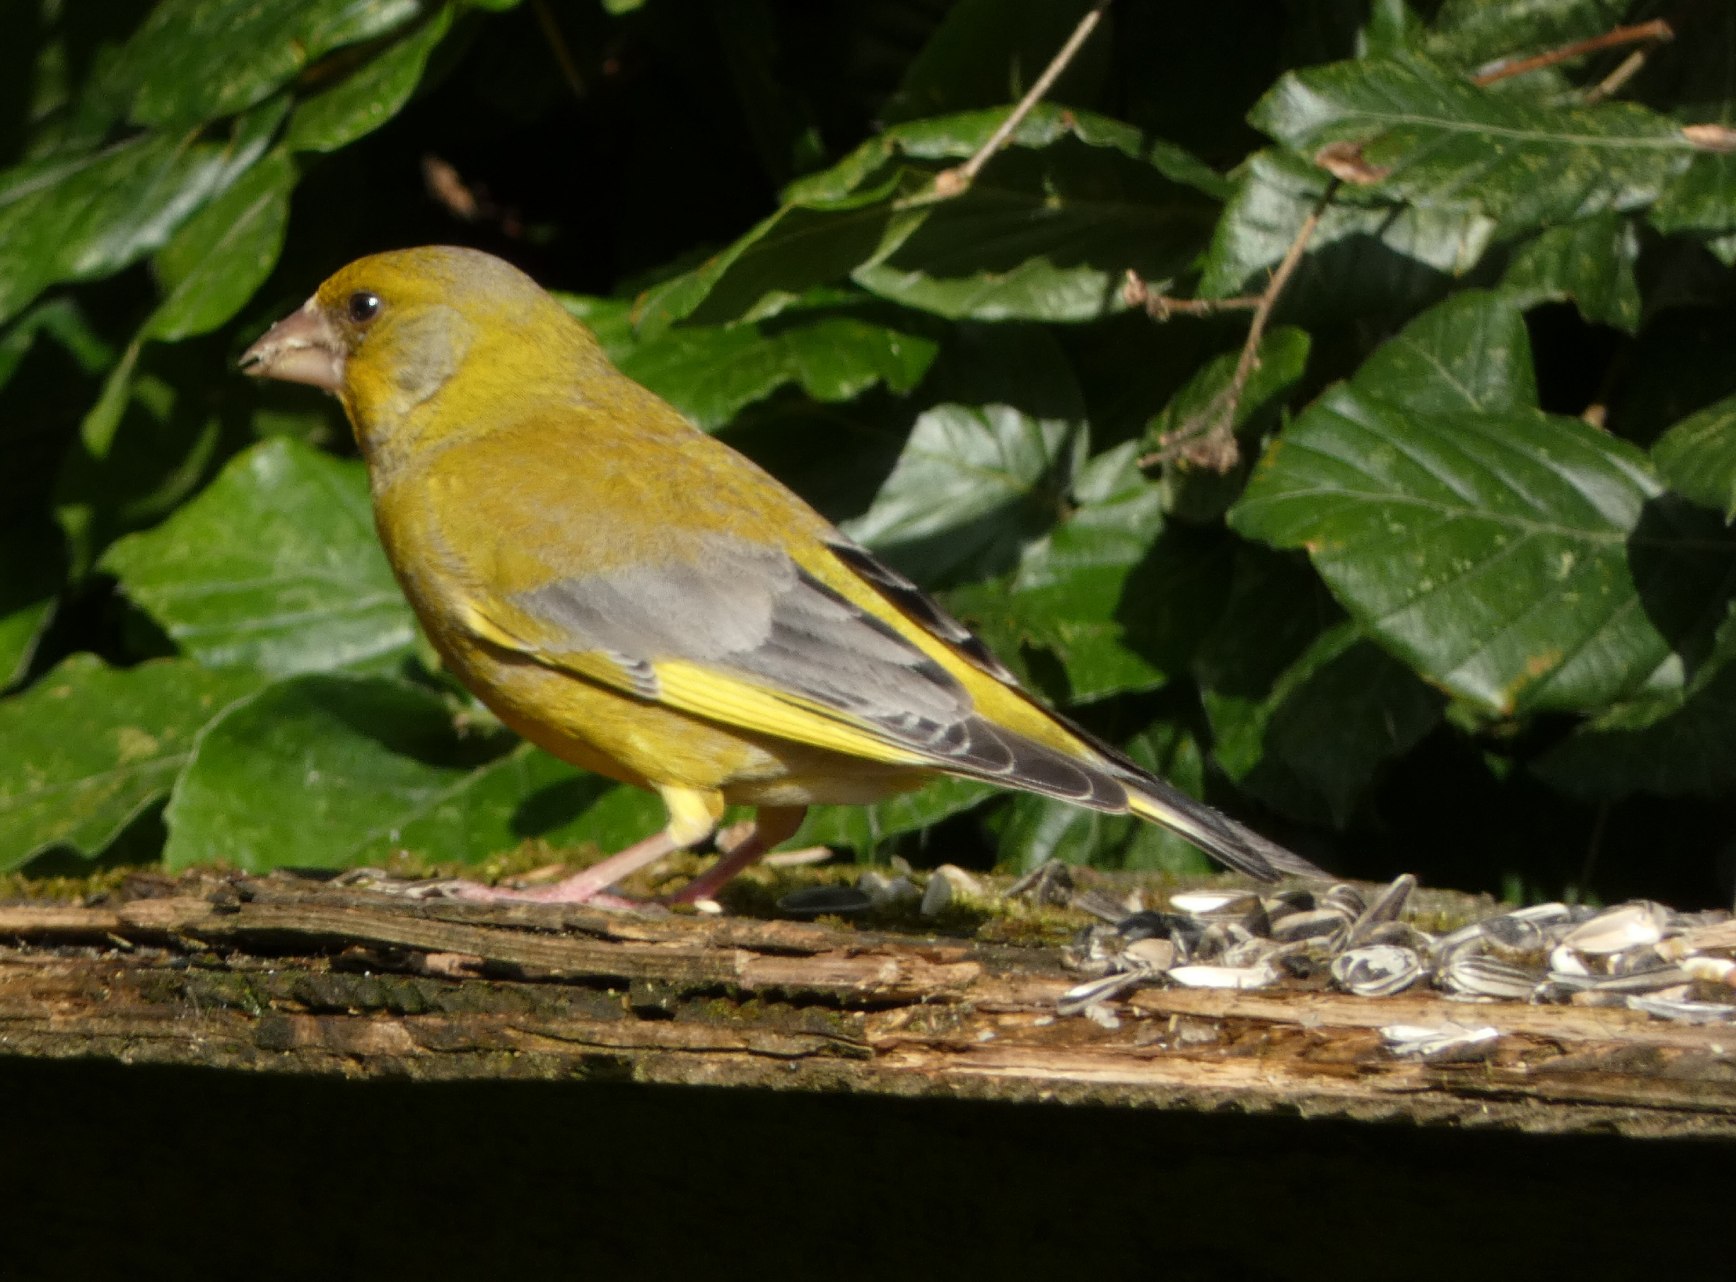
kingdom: Plantae
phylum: Tracheophyta
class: Liliopsida
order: Poales
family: Poaceae
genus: Chloris
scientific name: Chloris chloris
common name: Grønirisk
